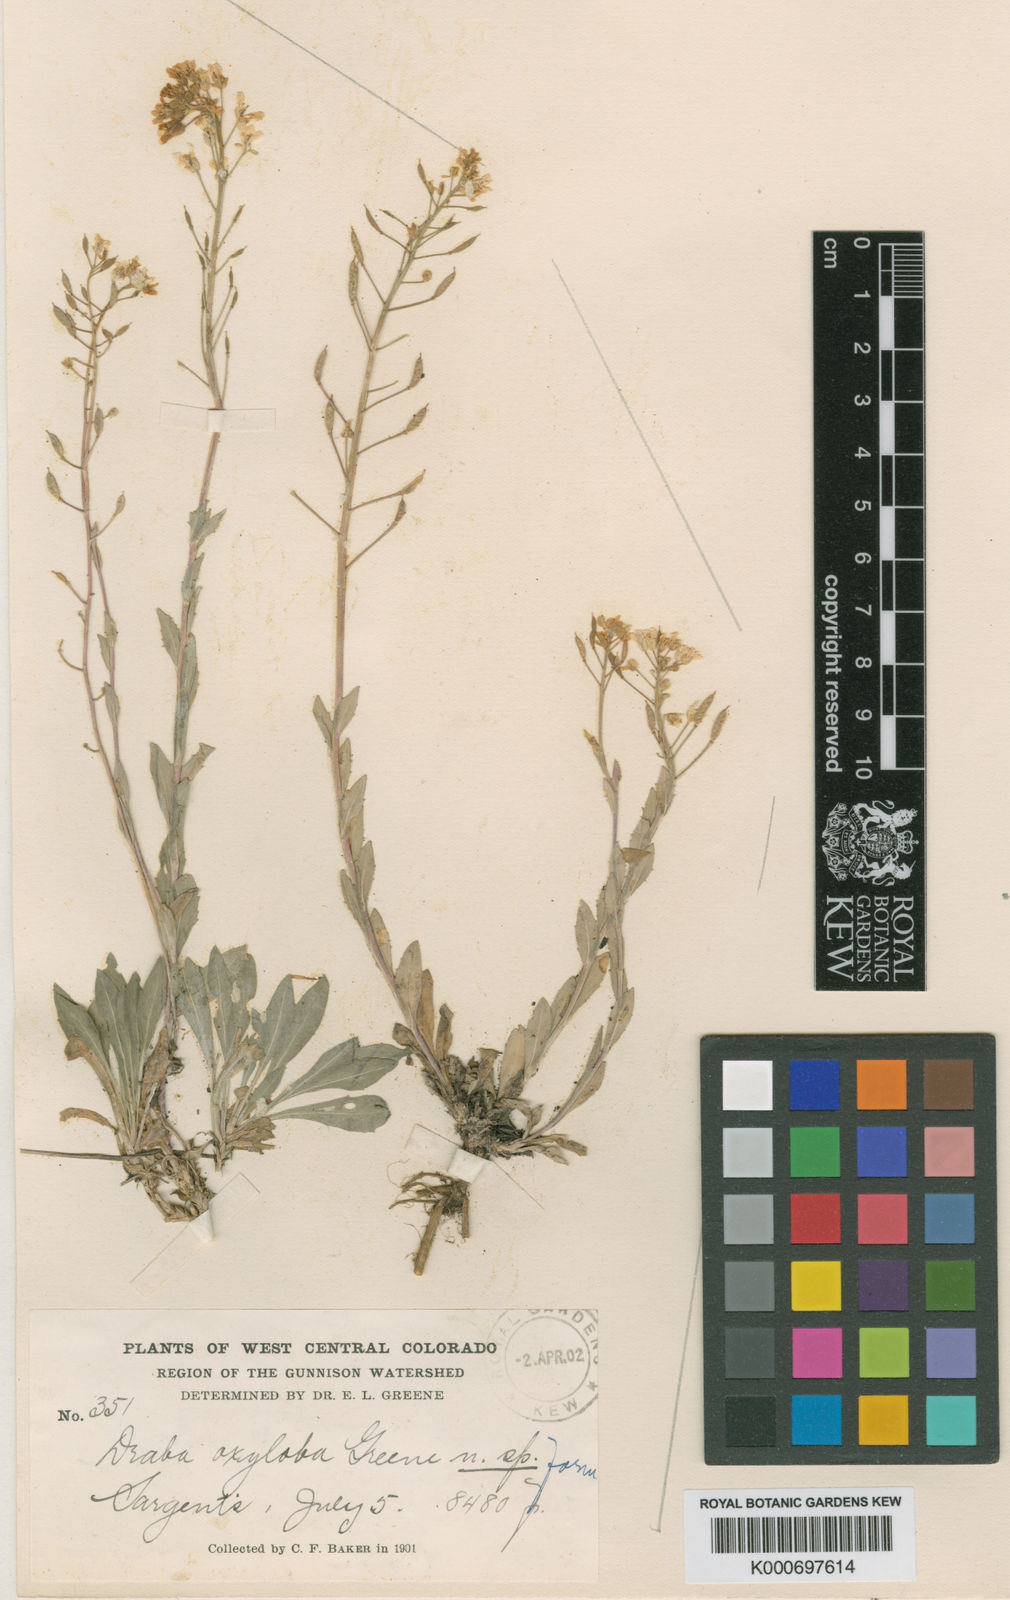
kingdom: Plantae
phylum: Tracheophyta
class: Magnoliopsida
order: Brassicales
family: Brassicaceae
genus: Draba
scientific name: Draba spectabilis
